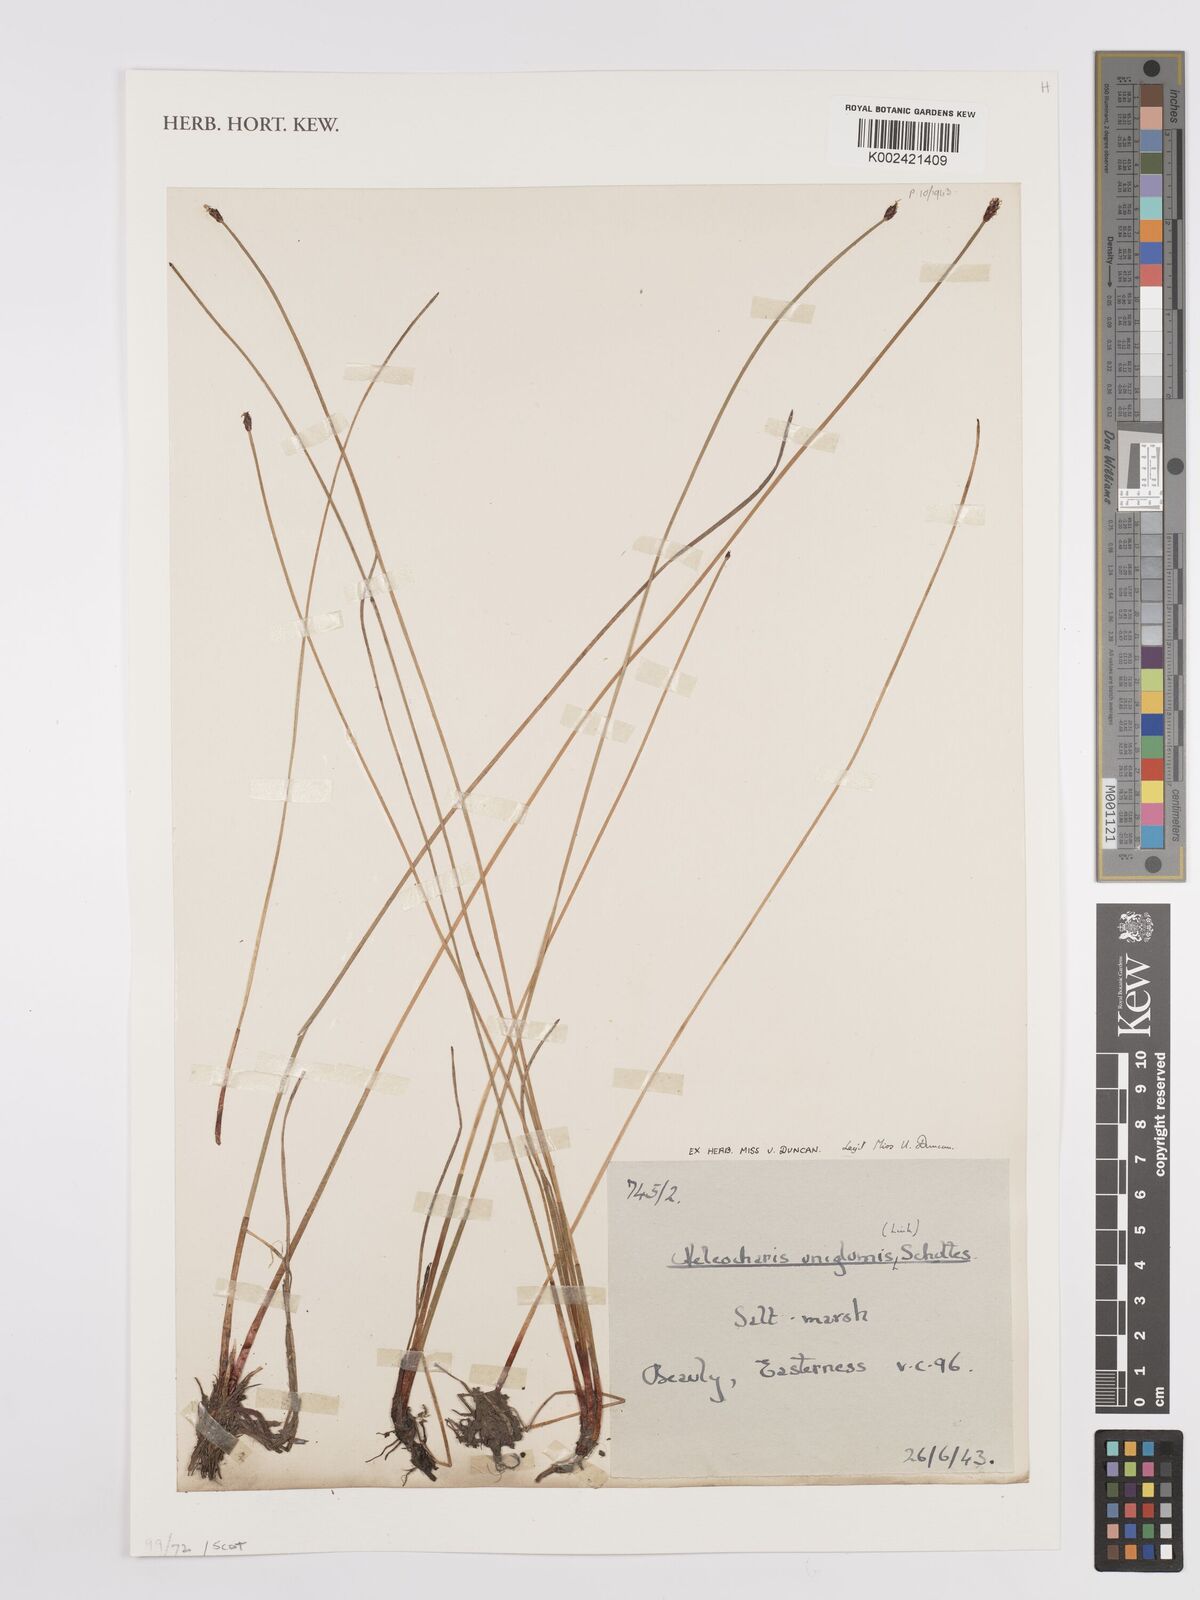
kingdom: Plantae
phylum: Tracheophyta
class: Liliopsida
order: Poales
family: Cyperaceae
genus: Eleocharis
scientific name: Eleocharis uniglumis
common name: Slender spike-rush
